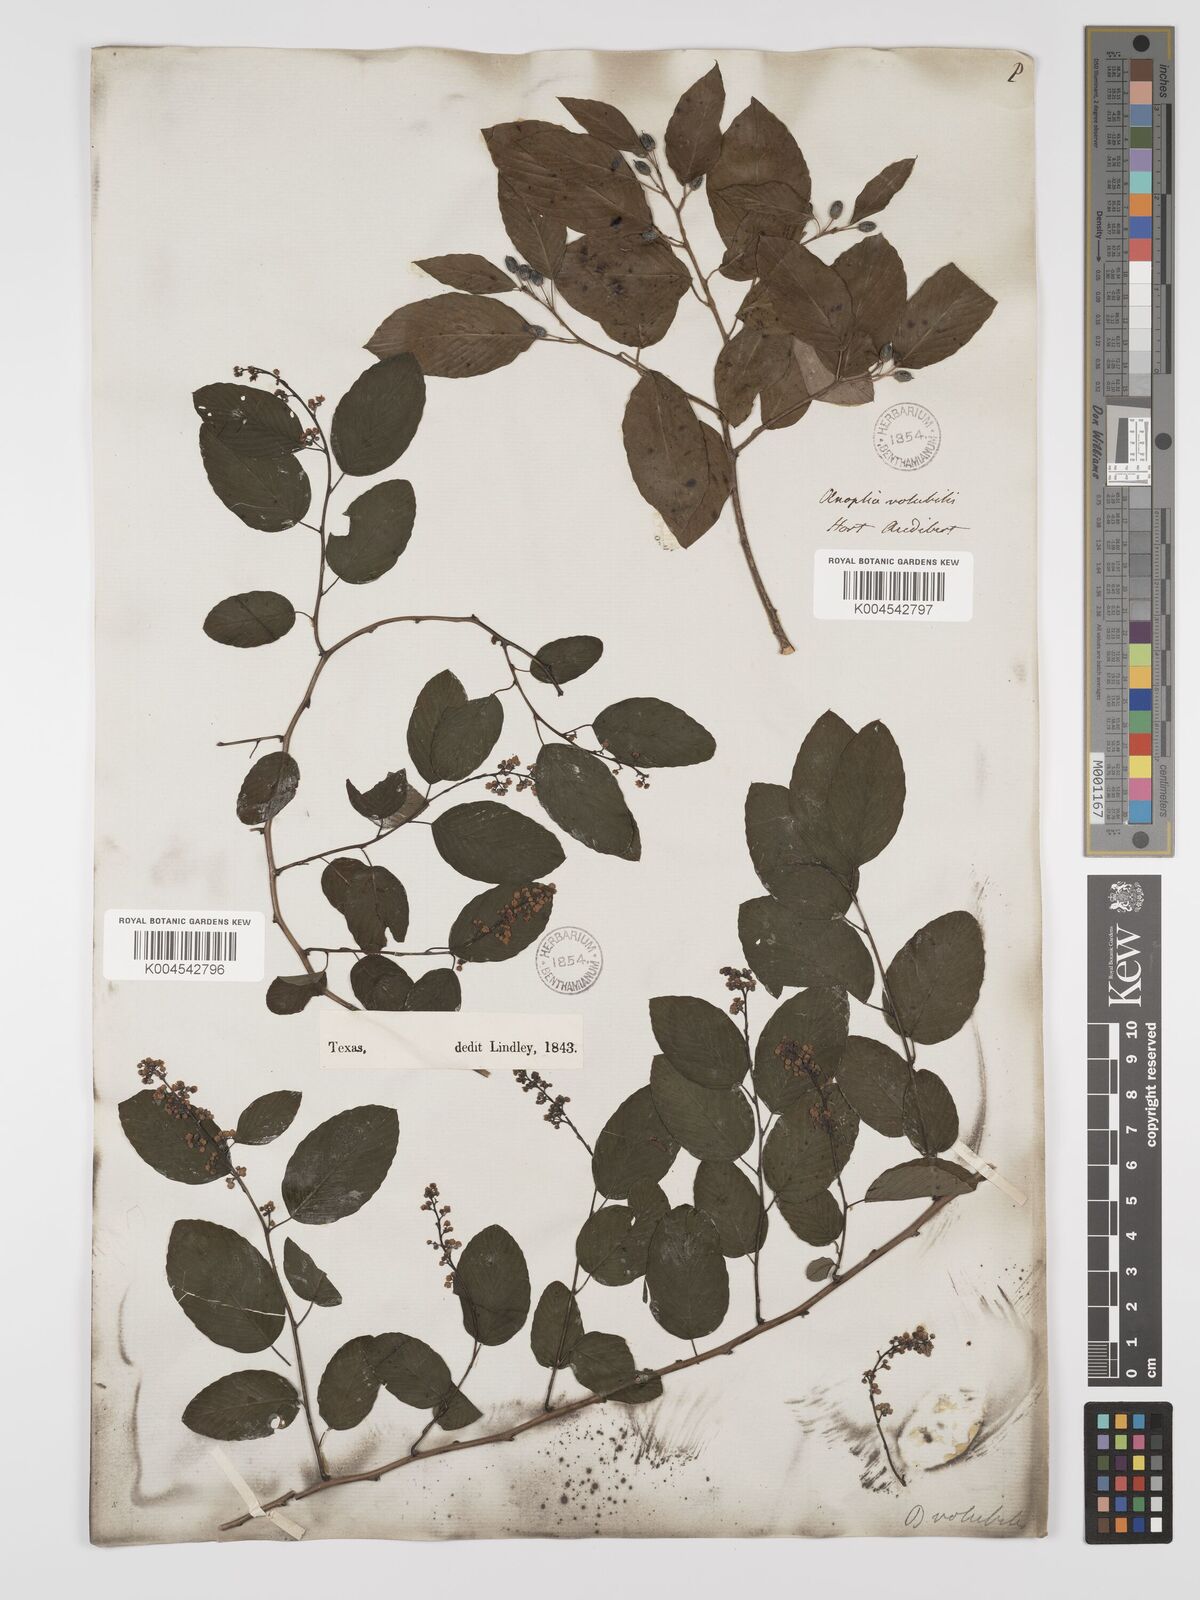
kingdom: Plantae
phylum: Tracheophyta
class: Magnoliopsida
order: Rosales
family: Rhamnaceae
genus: Berchemia
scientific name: Berchemia scandens
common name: Supplejack
